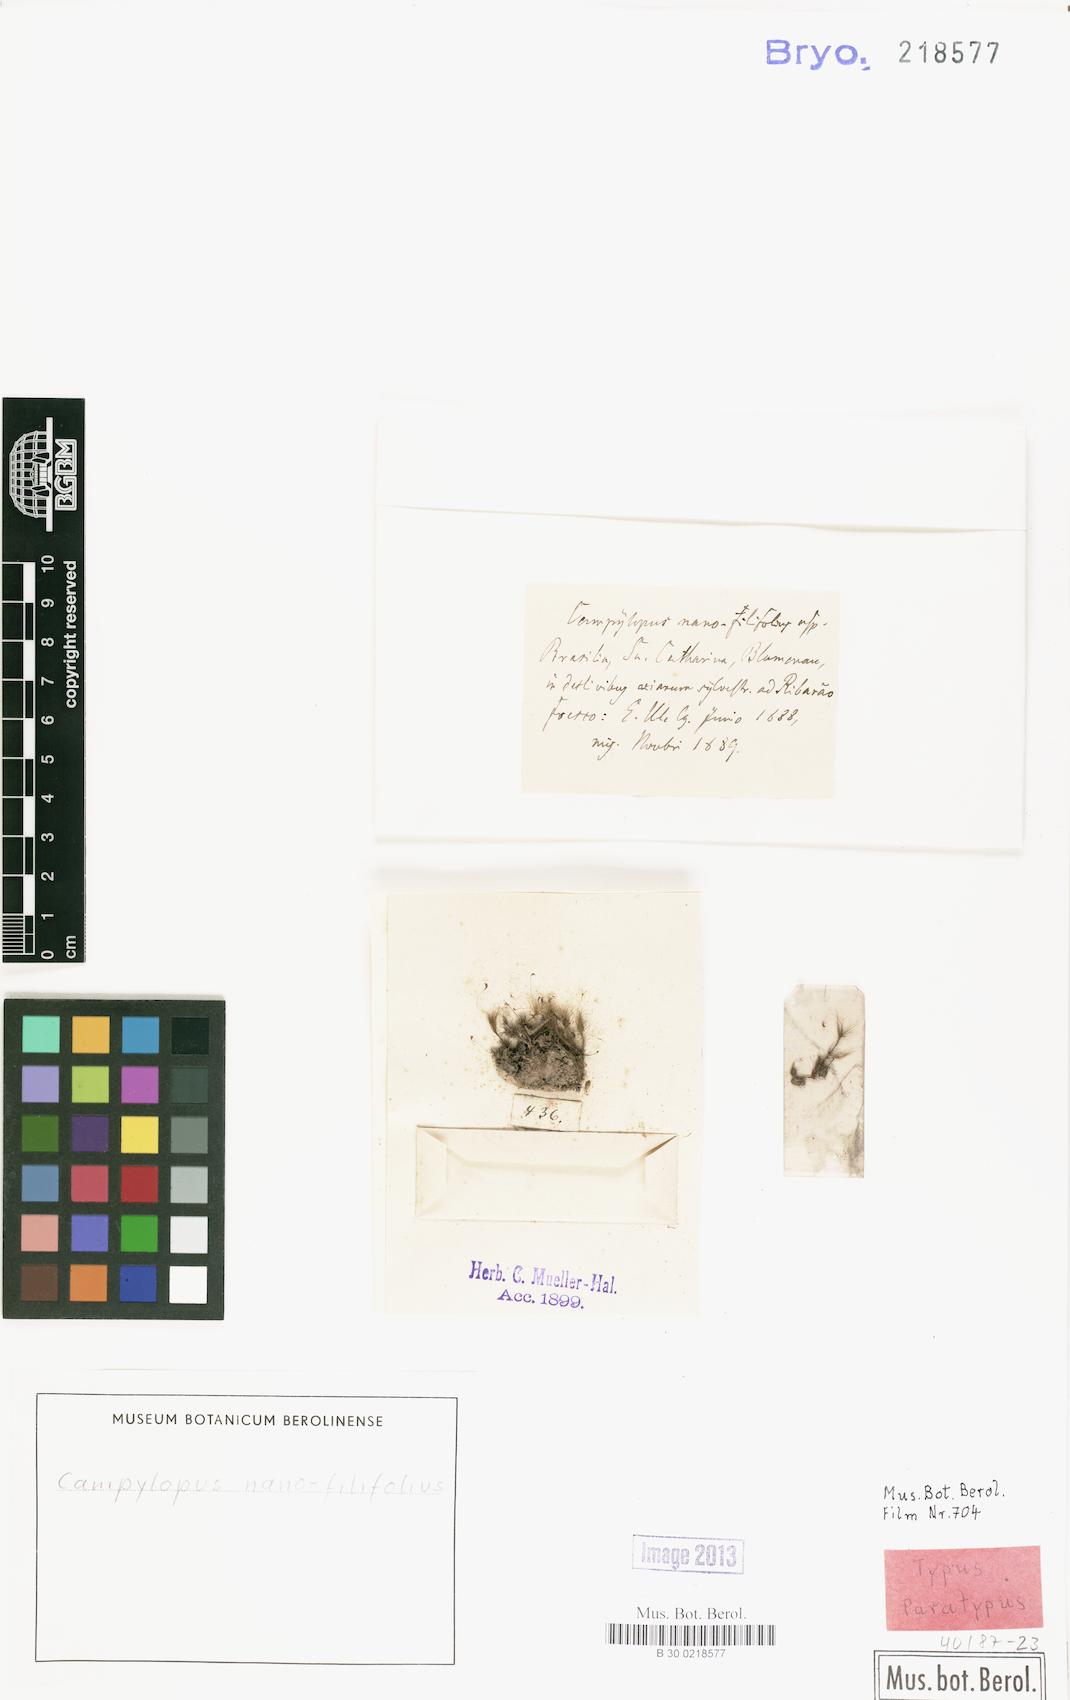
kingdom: Plantae
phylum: Bryophyta
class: Bryopsida
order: Dicranales
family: Leucobryaceae
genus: Campylopus
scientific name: Campylopus filifolius
